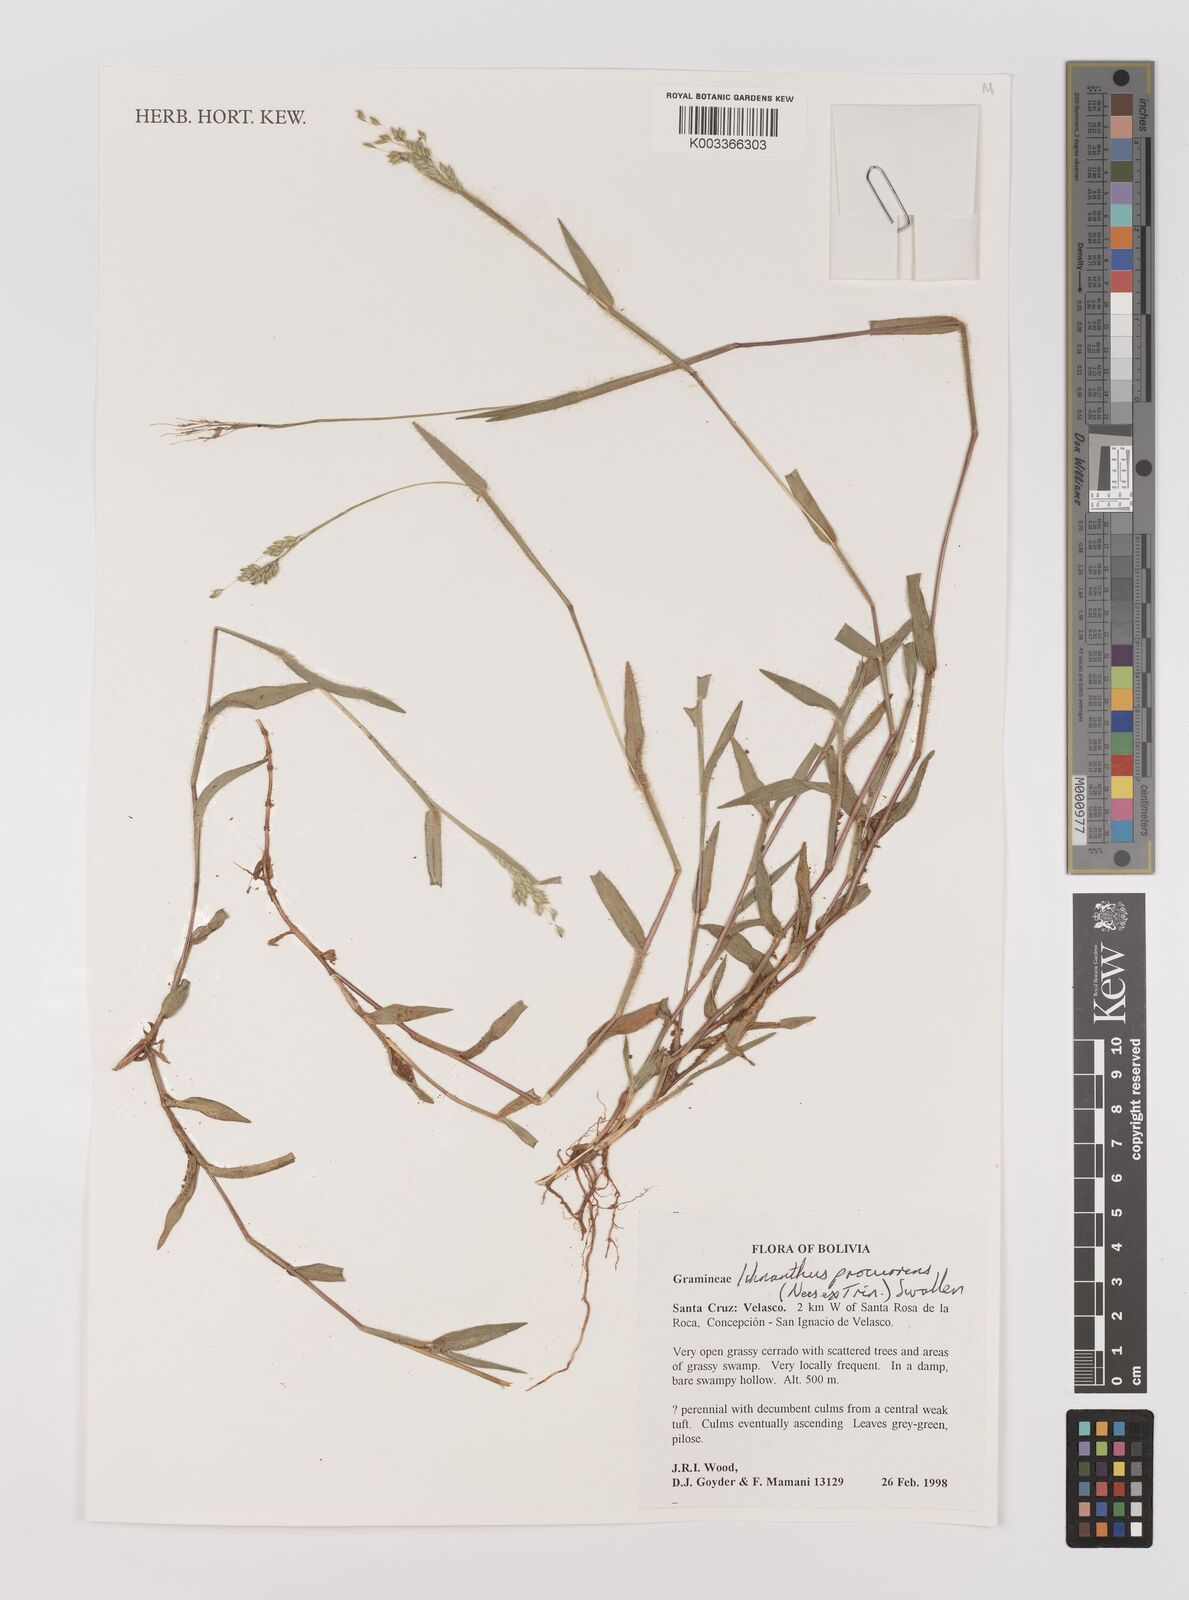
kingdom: Plantae
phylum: Tracheophyta
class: Liliopsida
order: Poales
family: Poaceae
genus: Oedochloa
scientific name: Oedochloa procurrens
